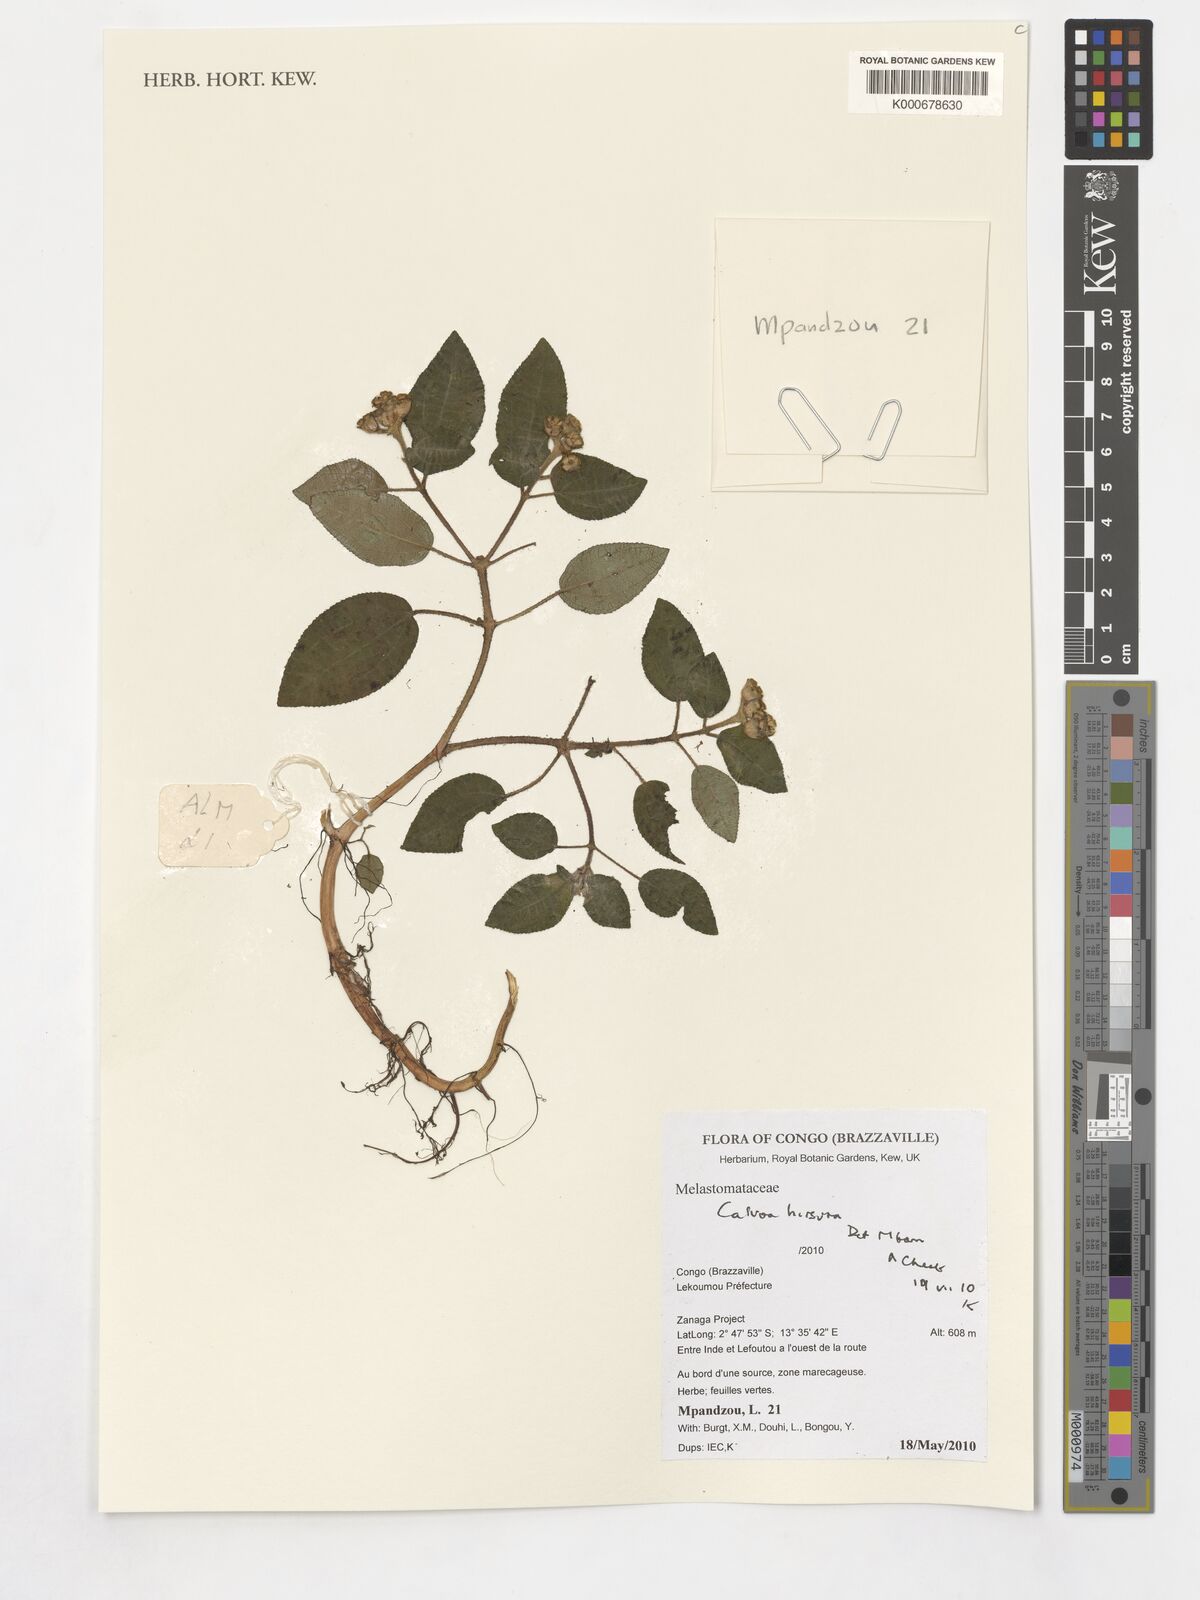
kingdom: Plantae
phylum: Tracheophyta
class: Magnoliopsida
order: Myrtales
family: Melastomataceae
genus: Calvoa
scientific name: Calvoa hirsuta
